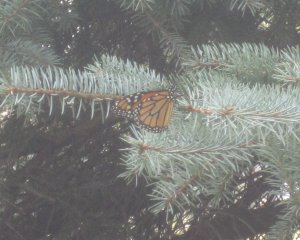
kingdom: Animalia
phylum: Arthropoda
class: Insecta
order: Lepidoptera
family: Nymphalidae
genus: Danaus
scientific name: Danaus plexippus
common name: Monarch
